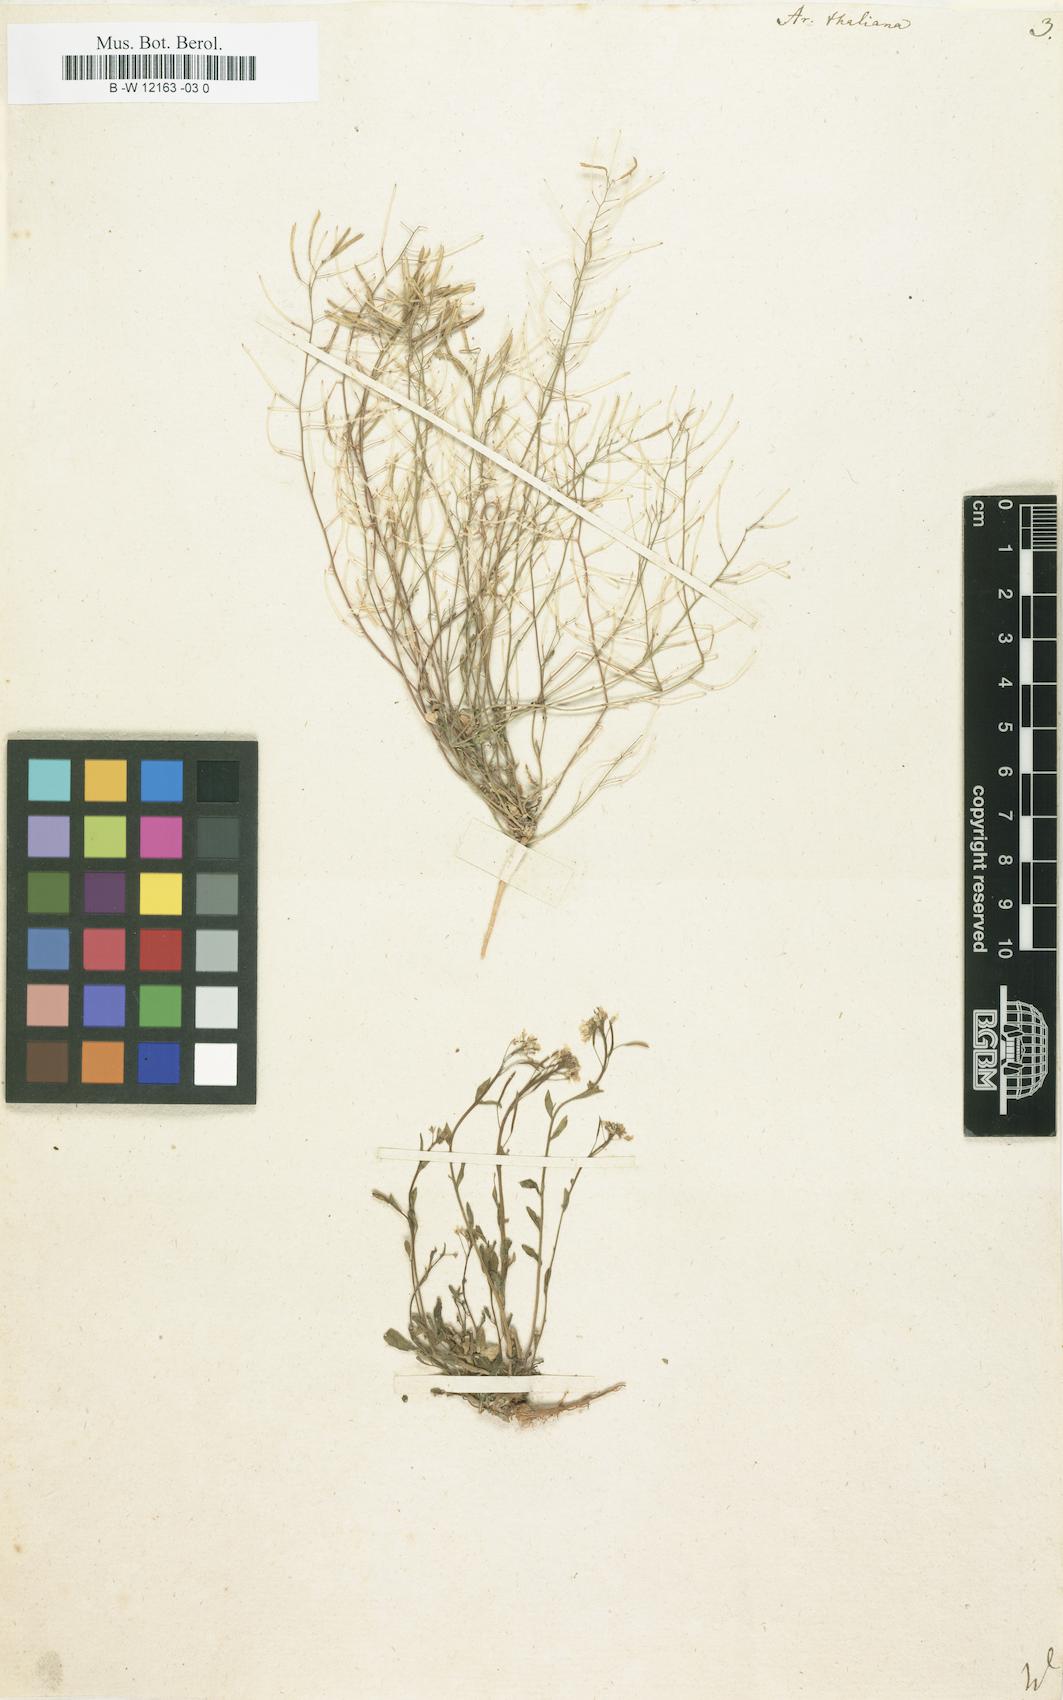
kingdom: Plantae
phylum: Tracheophyta
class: Magnoliopsida
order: Brassicales
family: Brassicaceae
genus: Arabidopsis
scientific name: Arabidopsis
